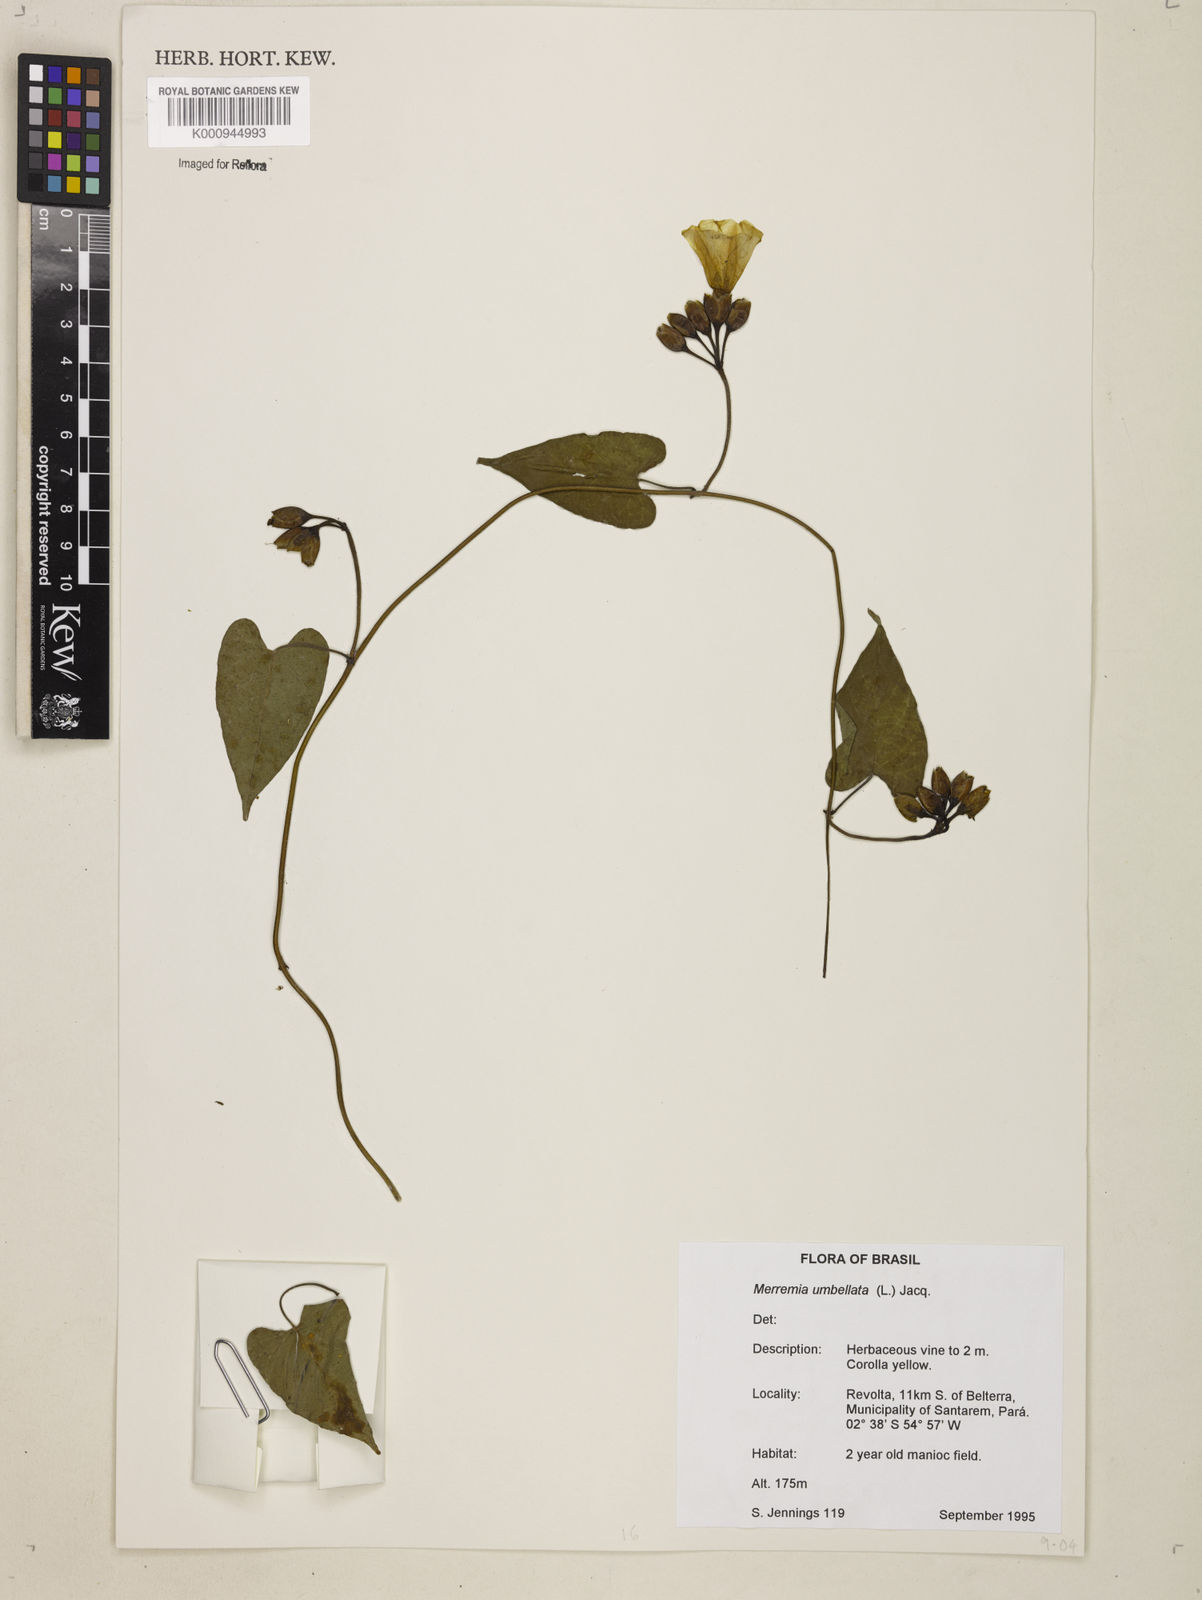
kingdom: Plantae
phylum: Tracheophyta
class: Magnoliopsida
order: Solanales
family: Convolvulaceae
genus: Camonea
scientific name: Camonea umbellata
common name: Hogvine
